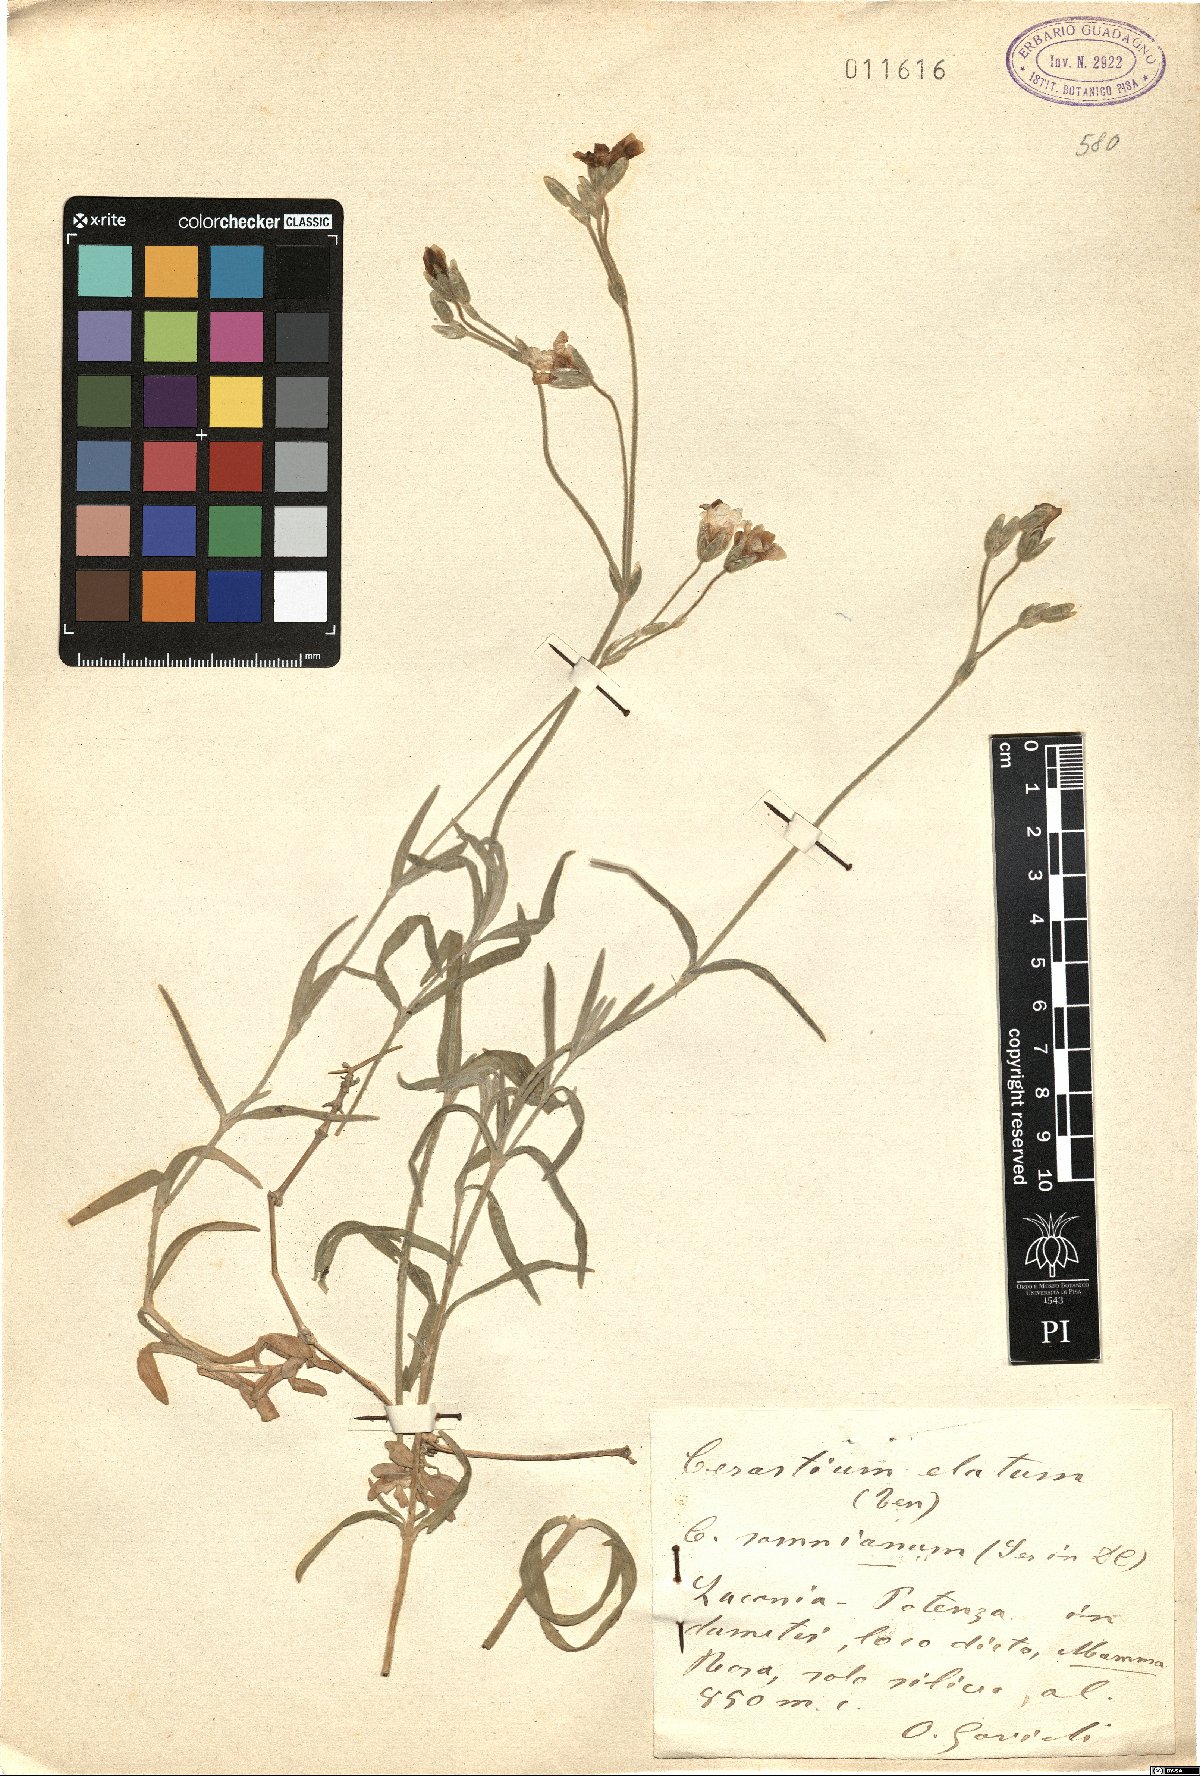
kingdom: Plantae
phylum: Tracheophyta
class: Magnoliopsida
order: Caryophyllales
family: Caryophyllaceae
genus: Cerastium
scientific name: Cerastium tomentosum
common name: Snow-in-summer
